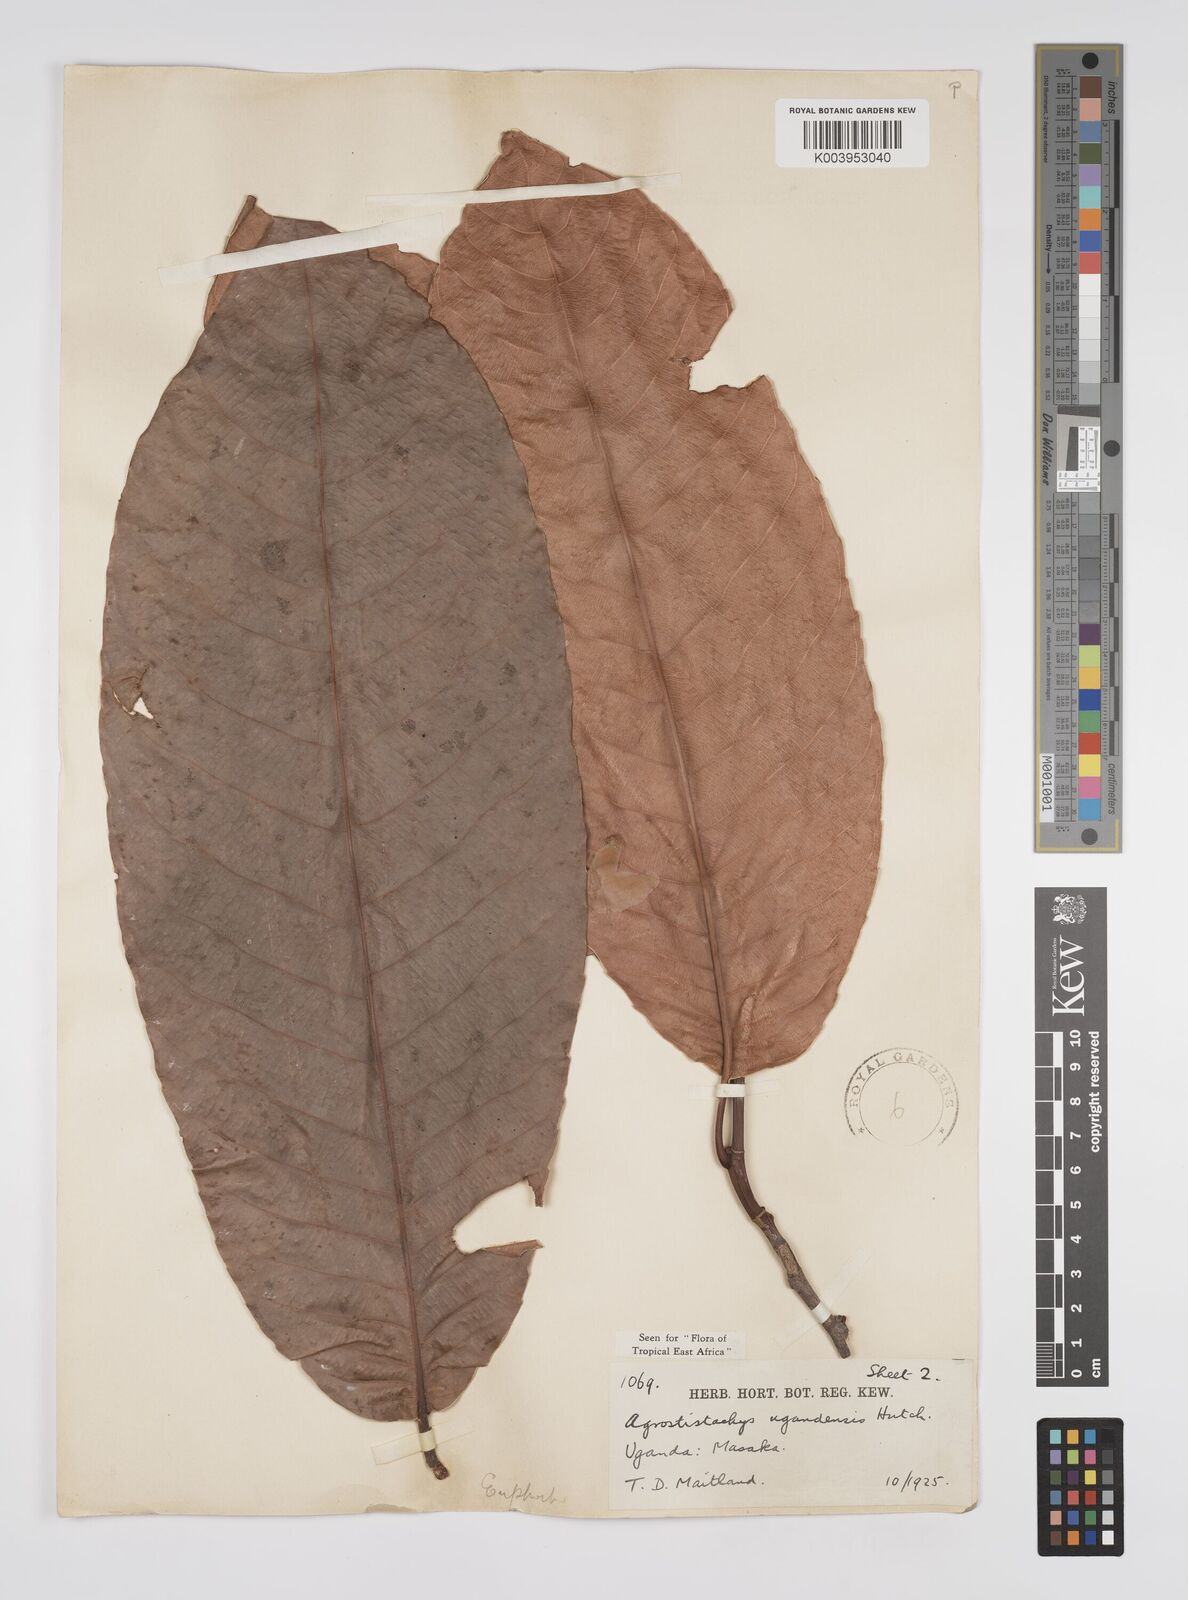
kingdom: Plantae
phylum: Tracheophyta
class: Magnoliopsida
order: Malpighiales
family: Euphorbiaceae
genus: Pseudagrostistachys
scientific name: Pseudagrostistachys ugandensis
